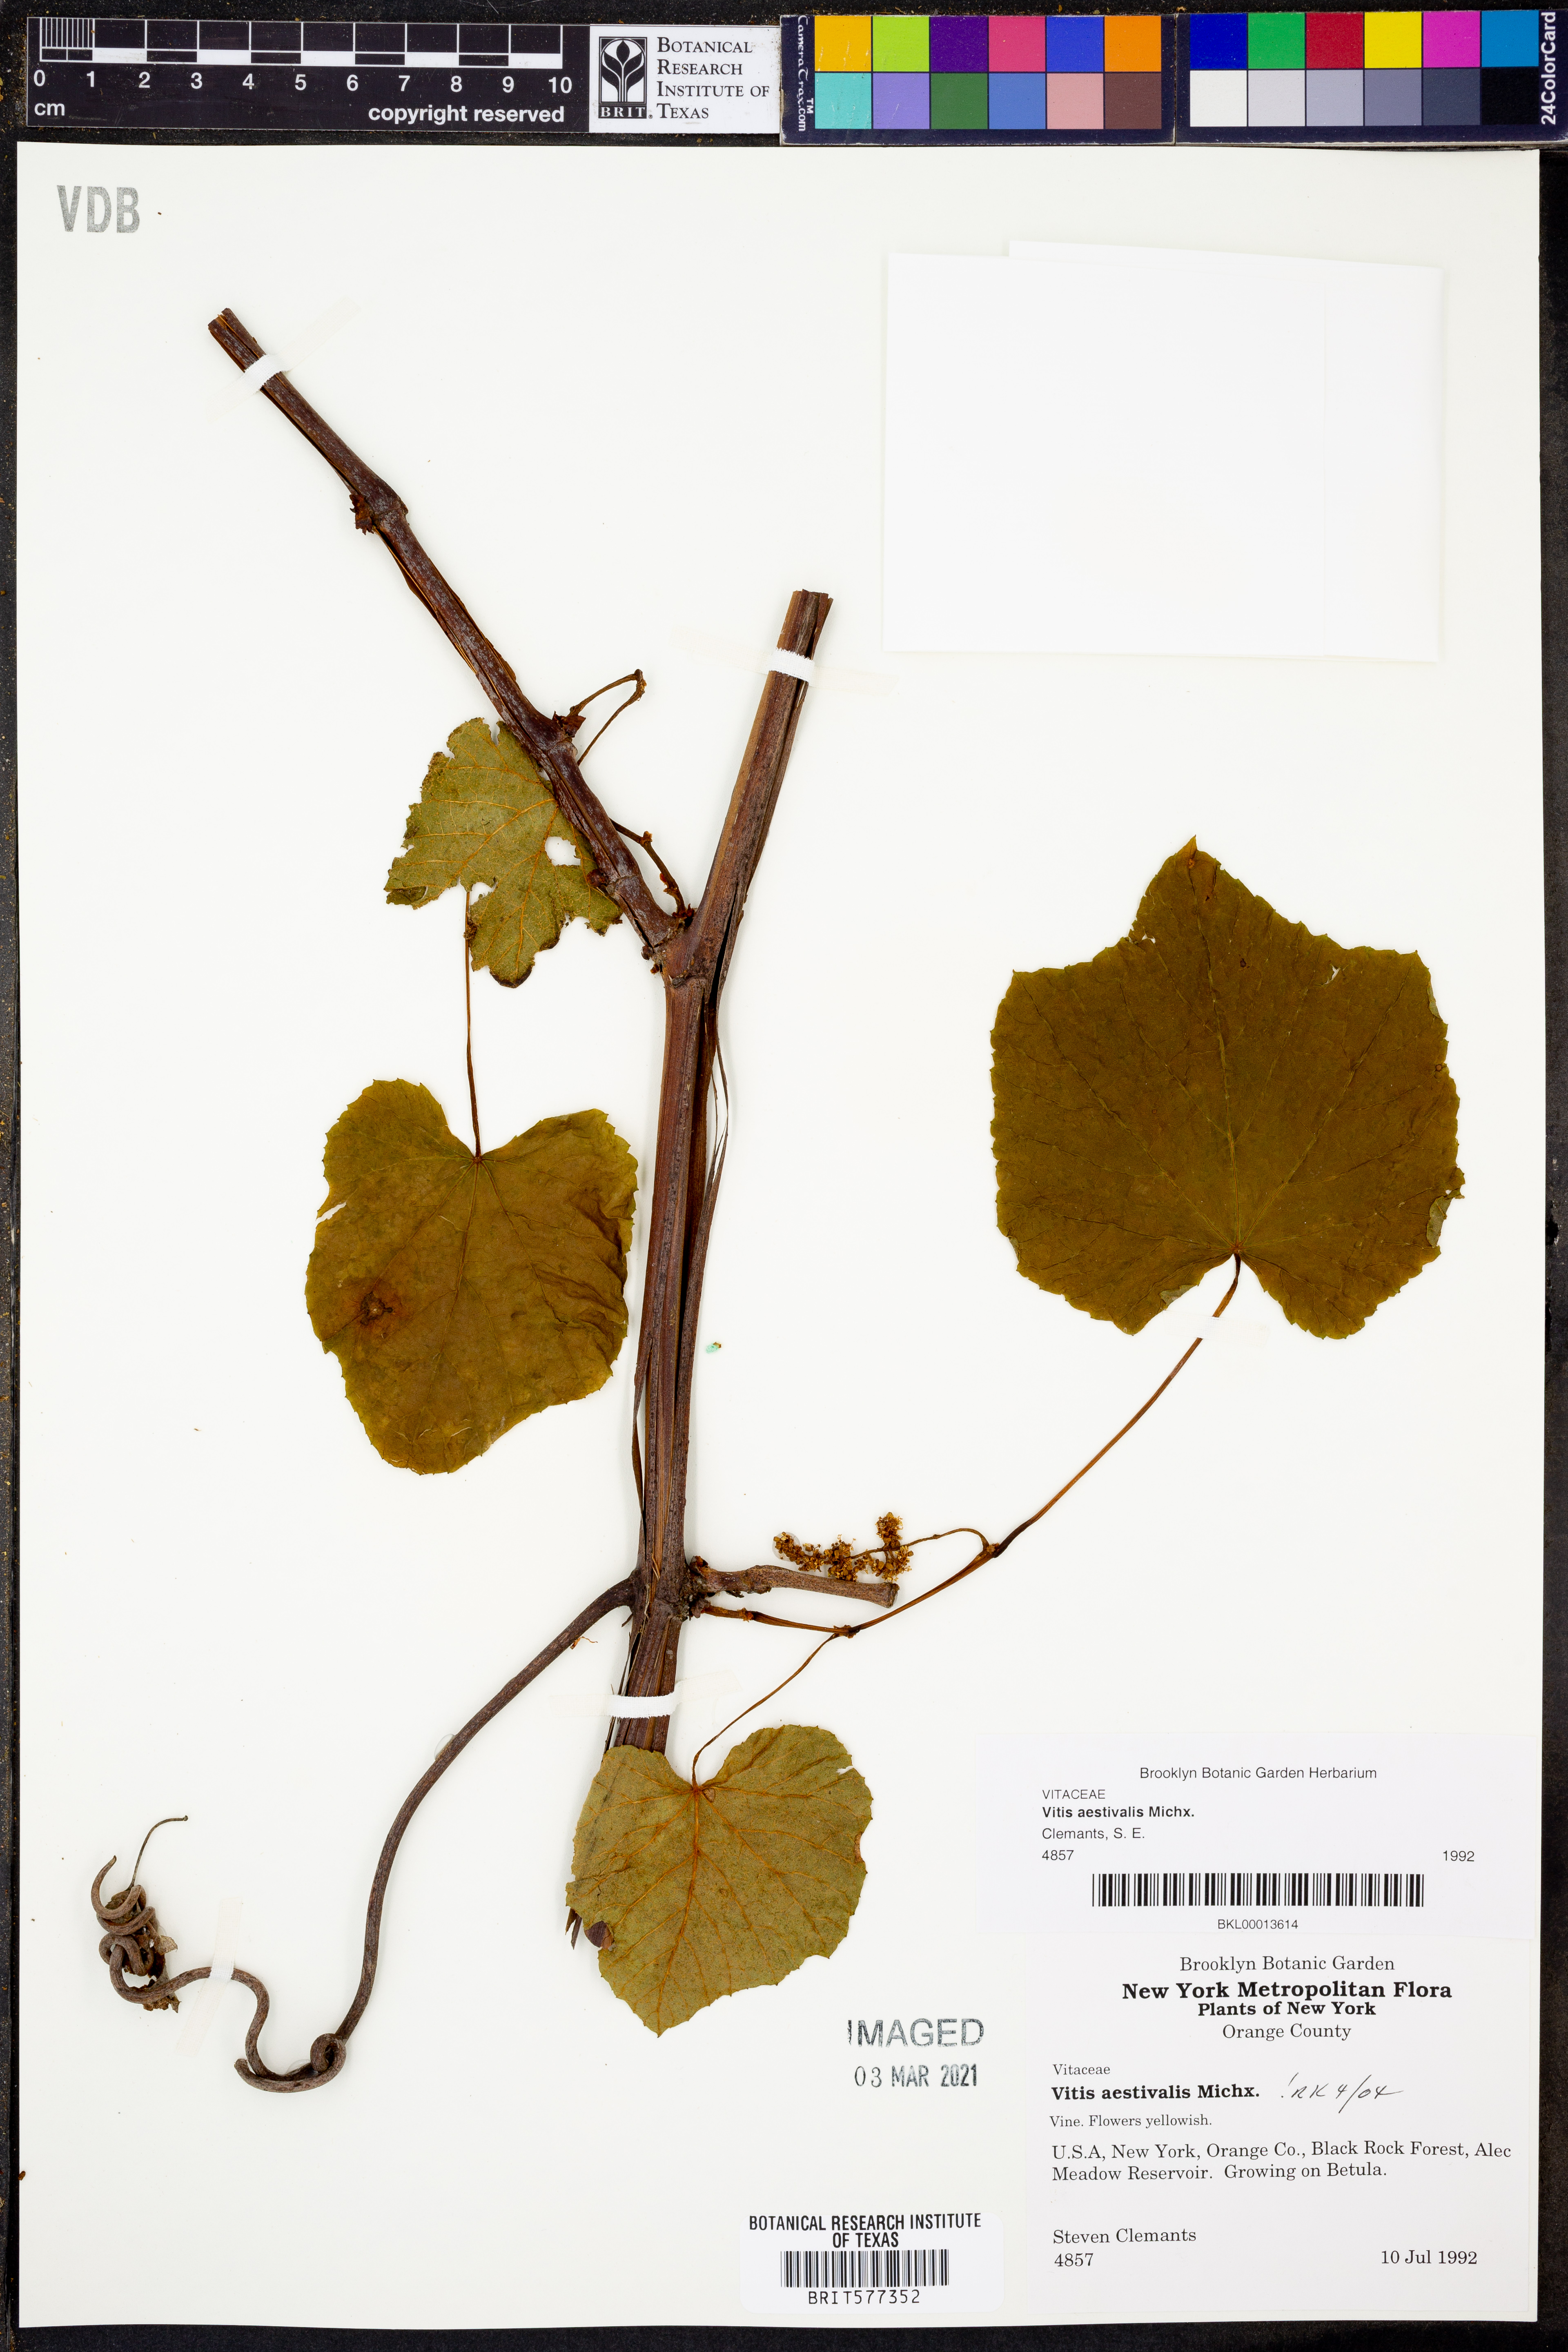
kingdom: Plantae
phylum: Tracheophyta
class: Magnoliopsida
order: Vitales
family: Vitaceae
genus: Vitis
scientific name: Vitis aestivalis
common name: Pigeon grape
